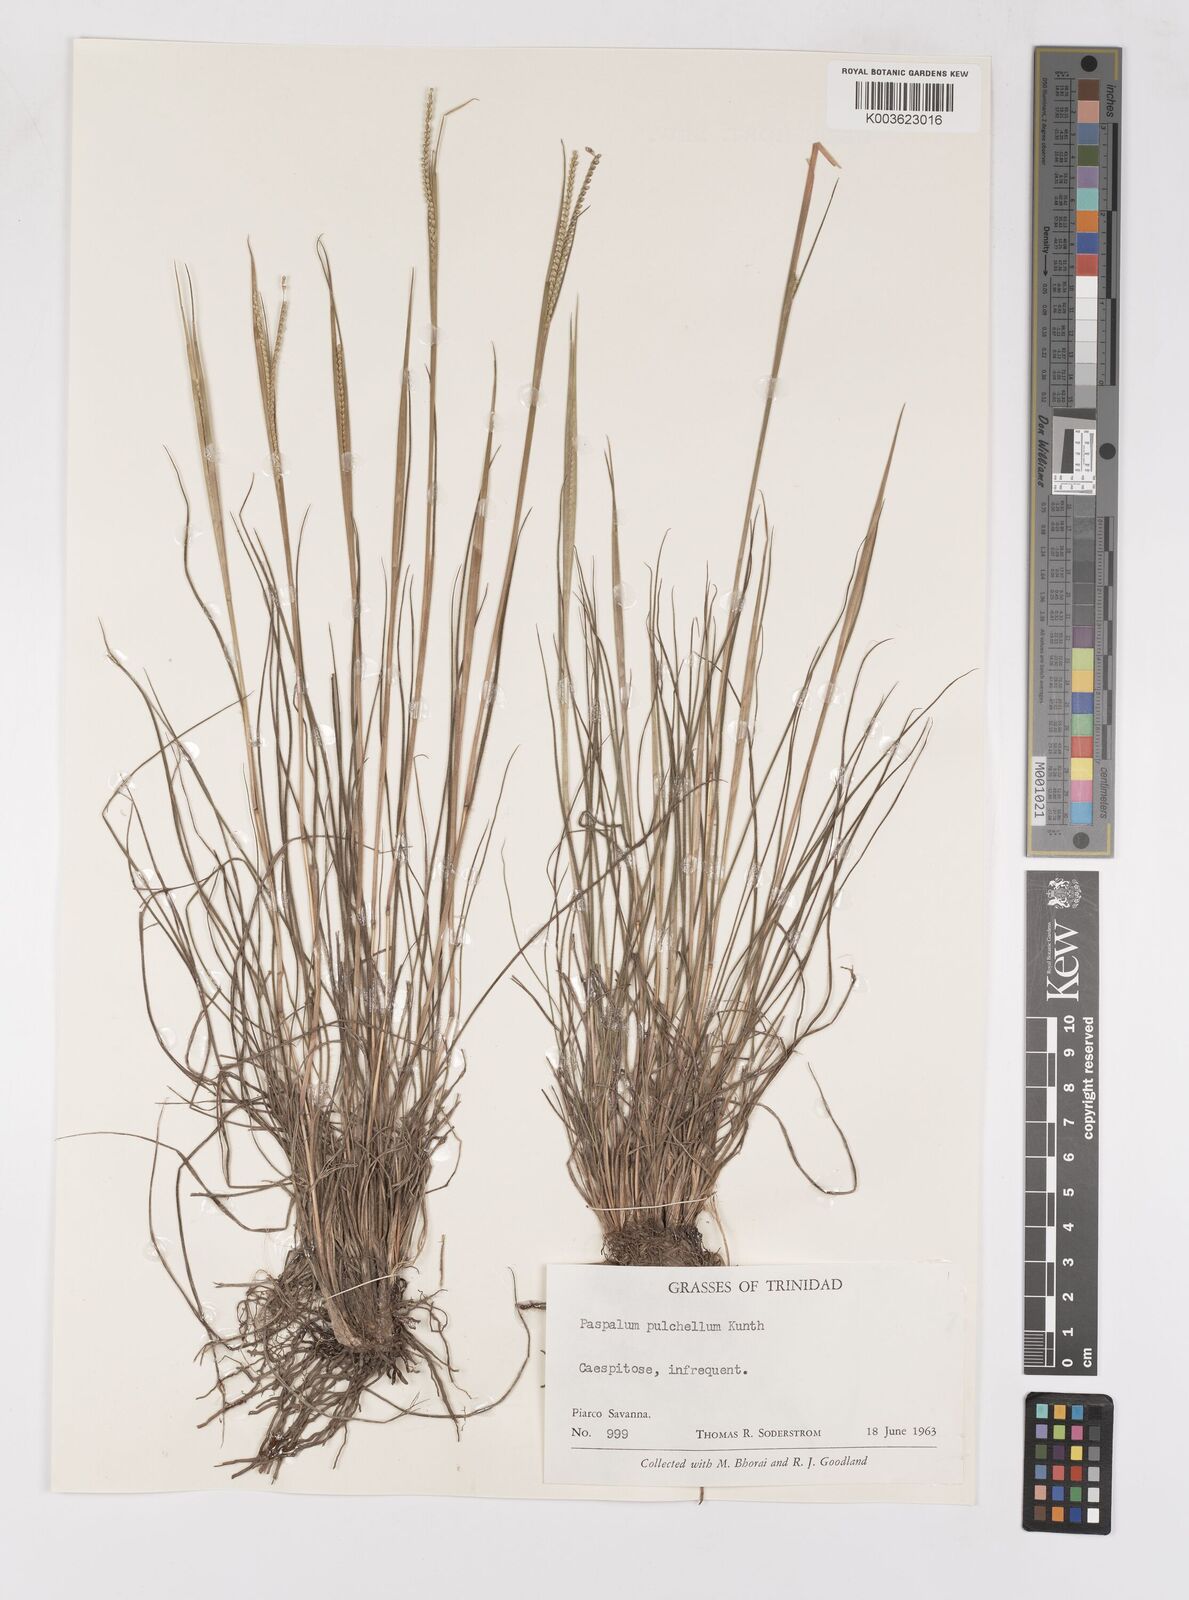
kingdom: Plantae
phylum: Tracheophyta
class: Liliopsida
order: Poales
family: Poaceae
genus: Paspalum
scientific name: Paspalum pulchellum
